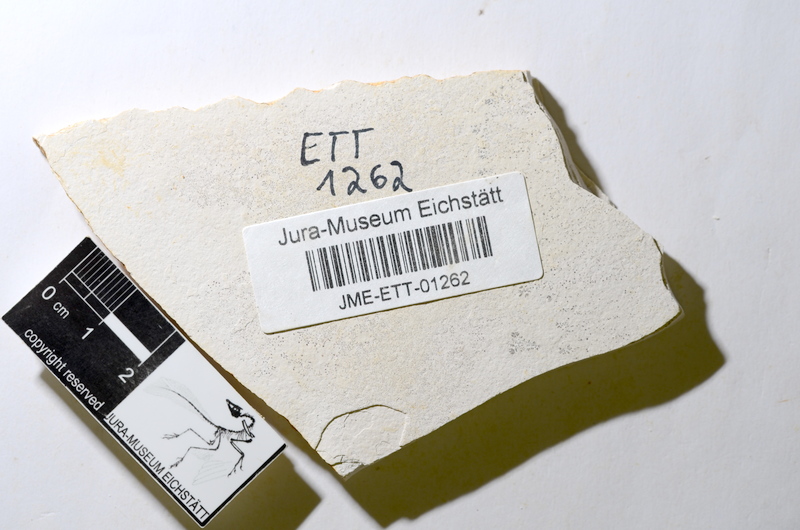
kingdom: Animalia
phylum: Chordata
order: Salmoniformes
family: Orthogonikleithridae
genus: Orthogonikleithrus
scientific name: Orthogonikleithrus hoelli
